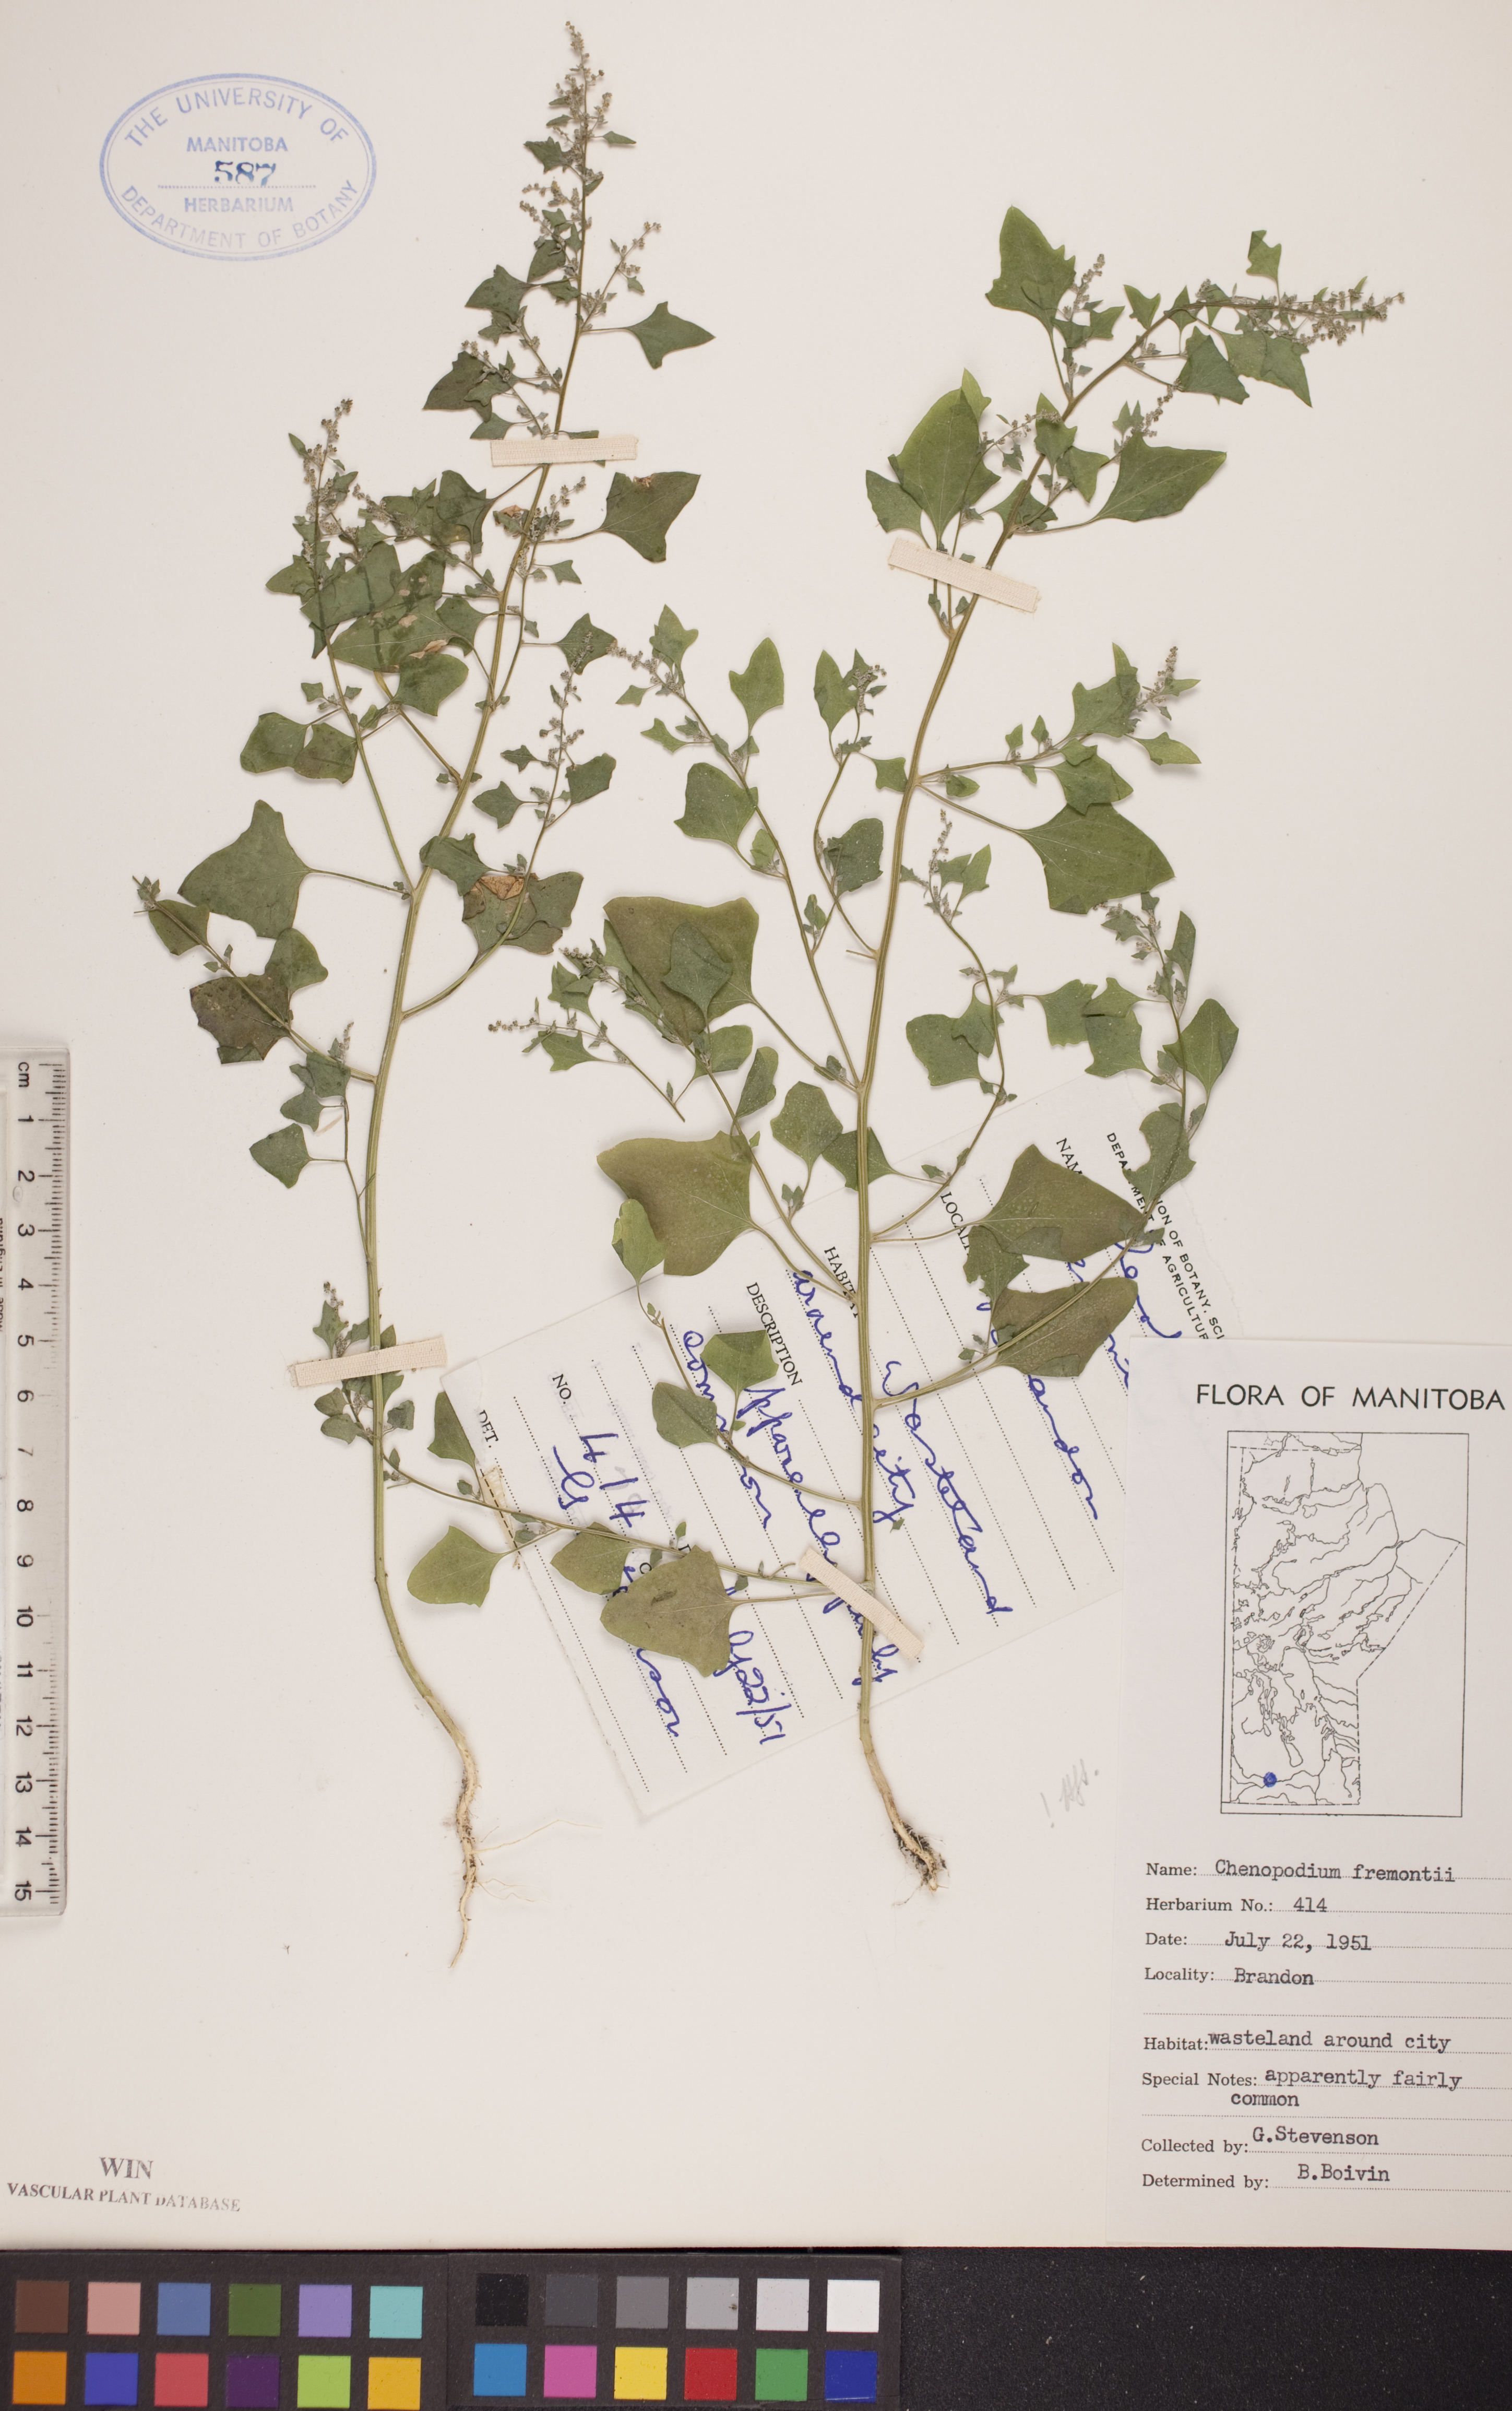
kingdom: Plantae
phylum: Tracheophyta
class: Magnoliopsida
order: Caryophyllales
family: Amaranthaceae
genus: Chenopodium
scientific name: Chenopodium fremontii
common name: Fremont's goosefoot
